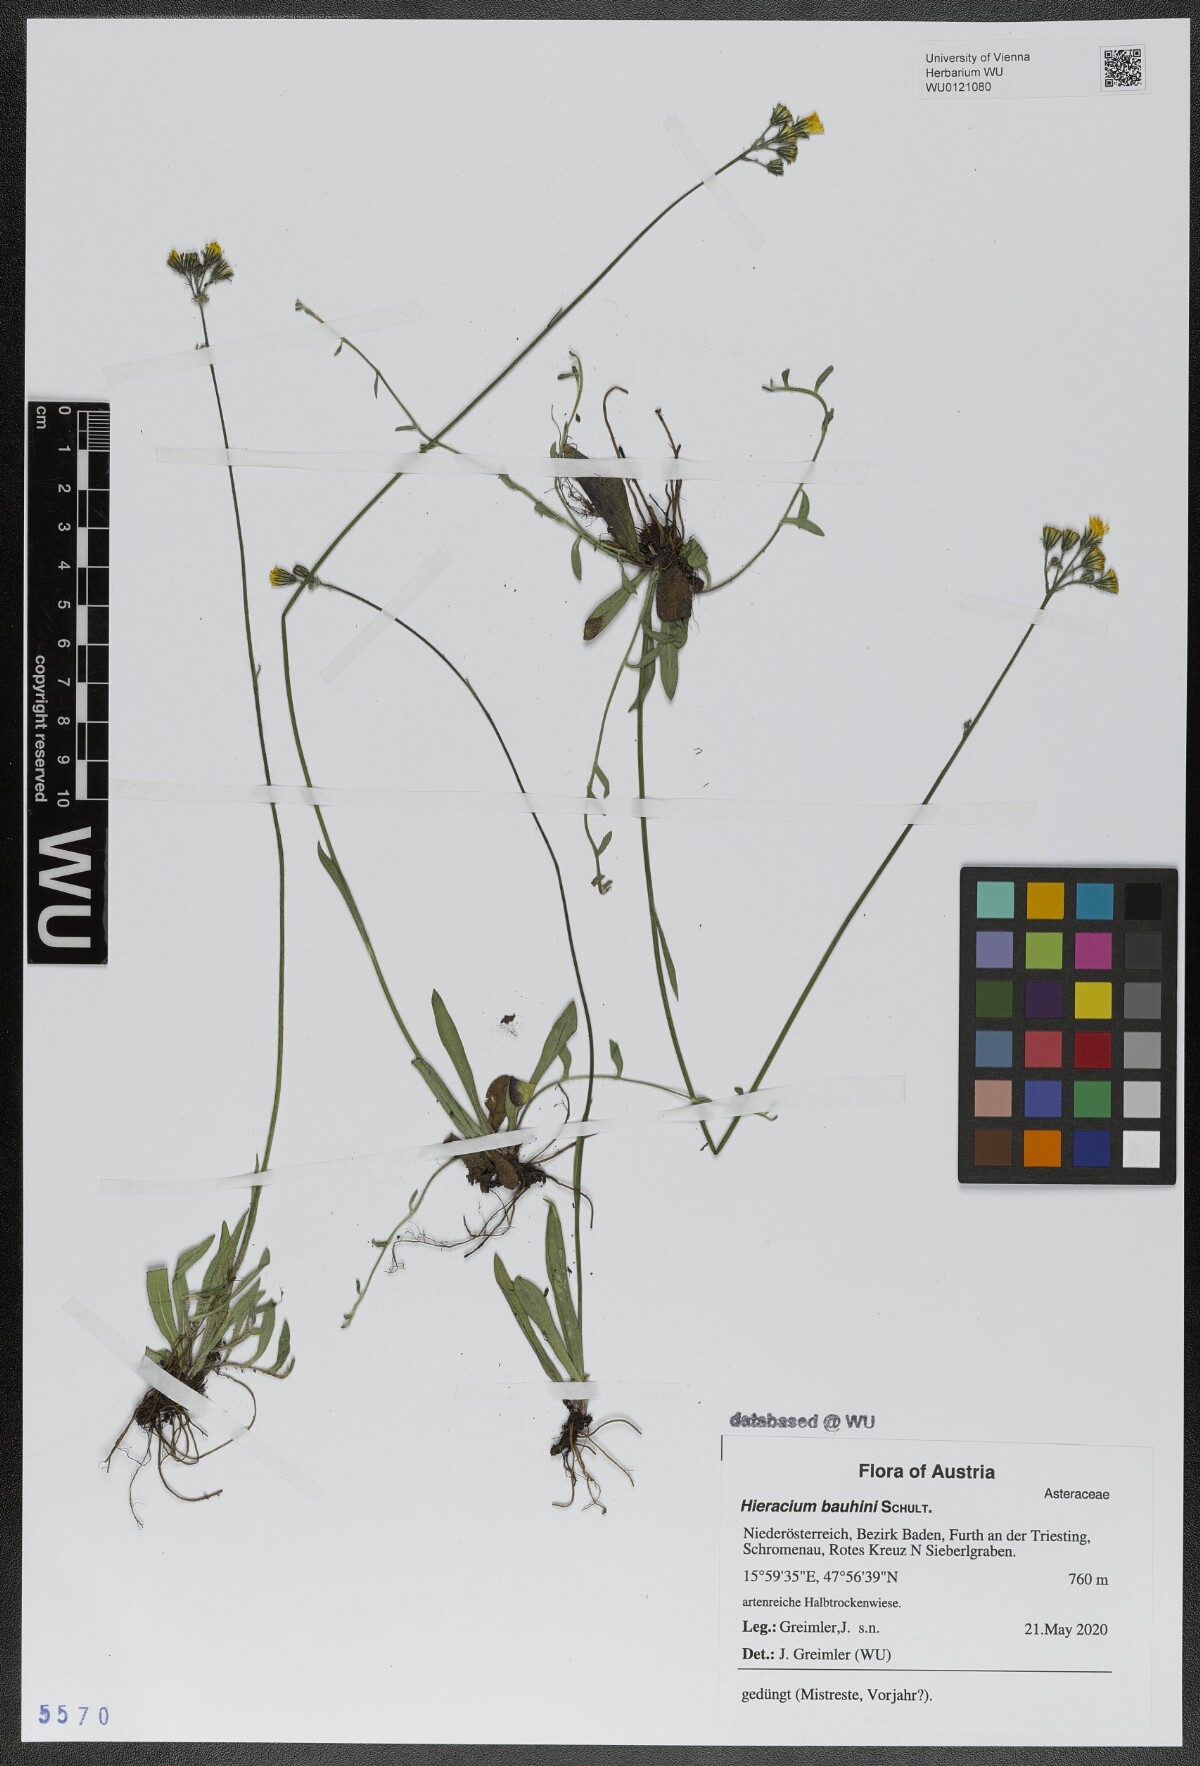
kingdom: Plantae
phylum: Tracheophyta
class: Magnoliopsida
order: Asterales
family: Asteraceae
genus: Pilosella
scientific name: Pilosella bauhini
